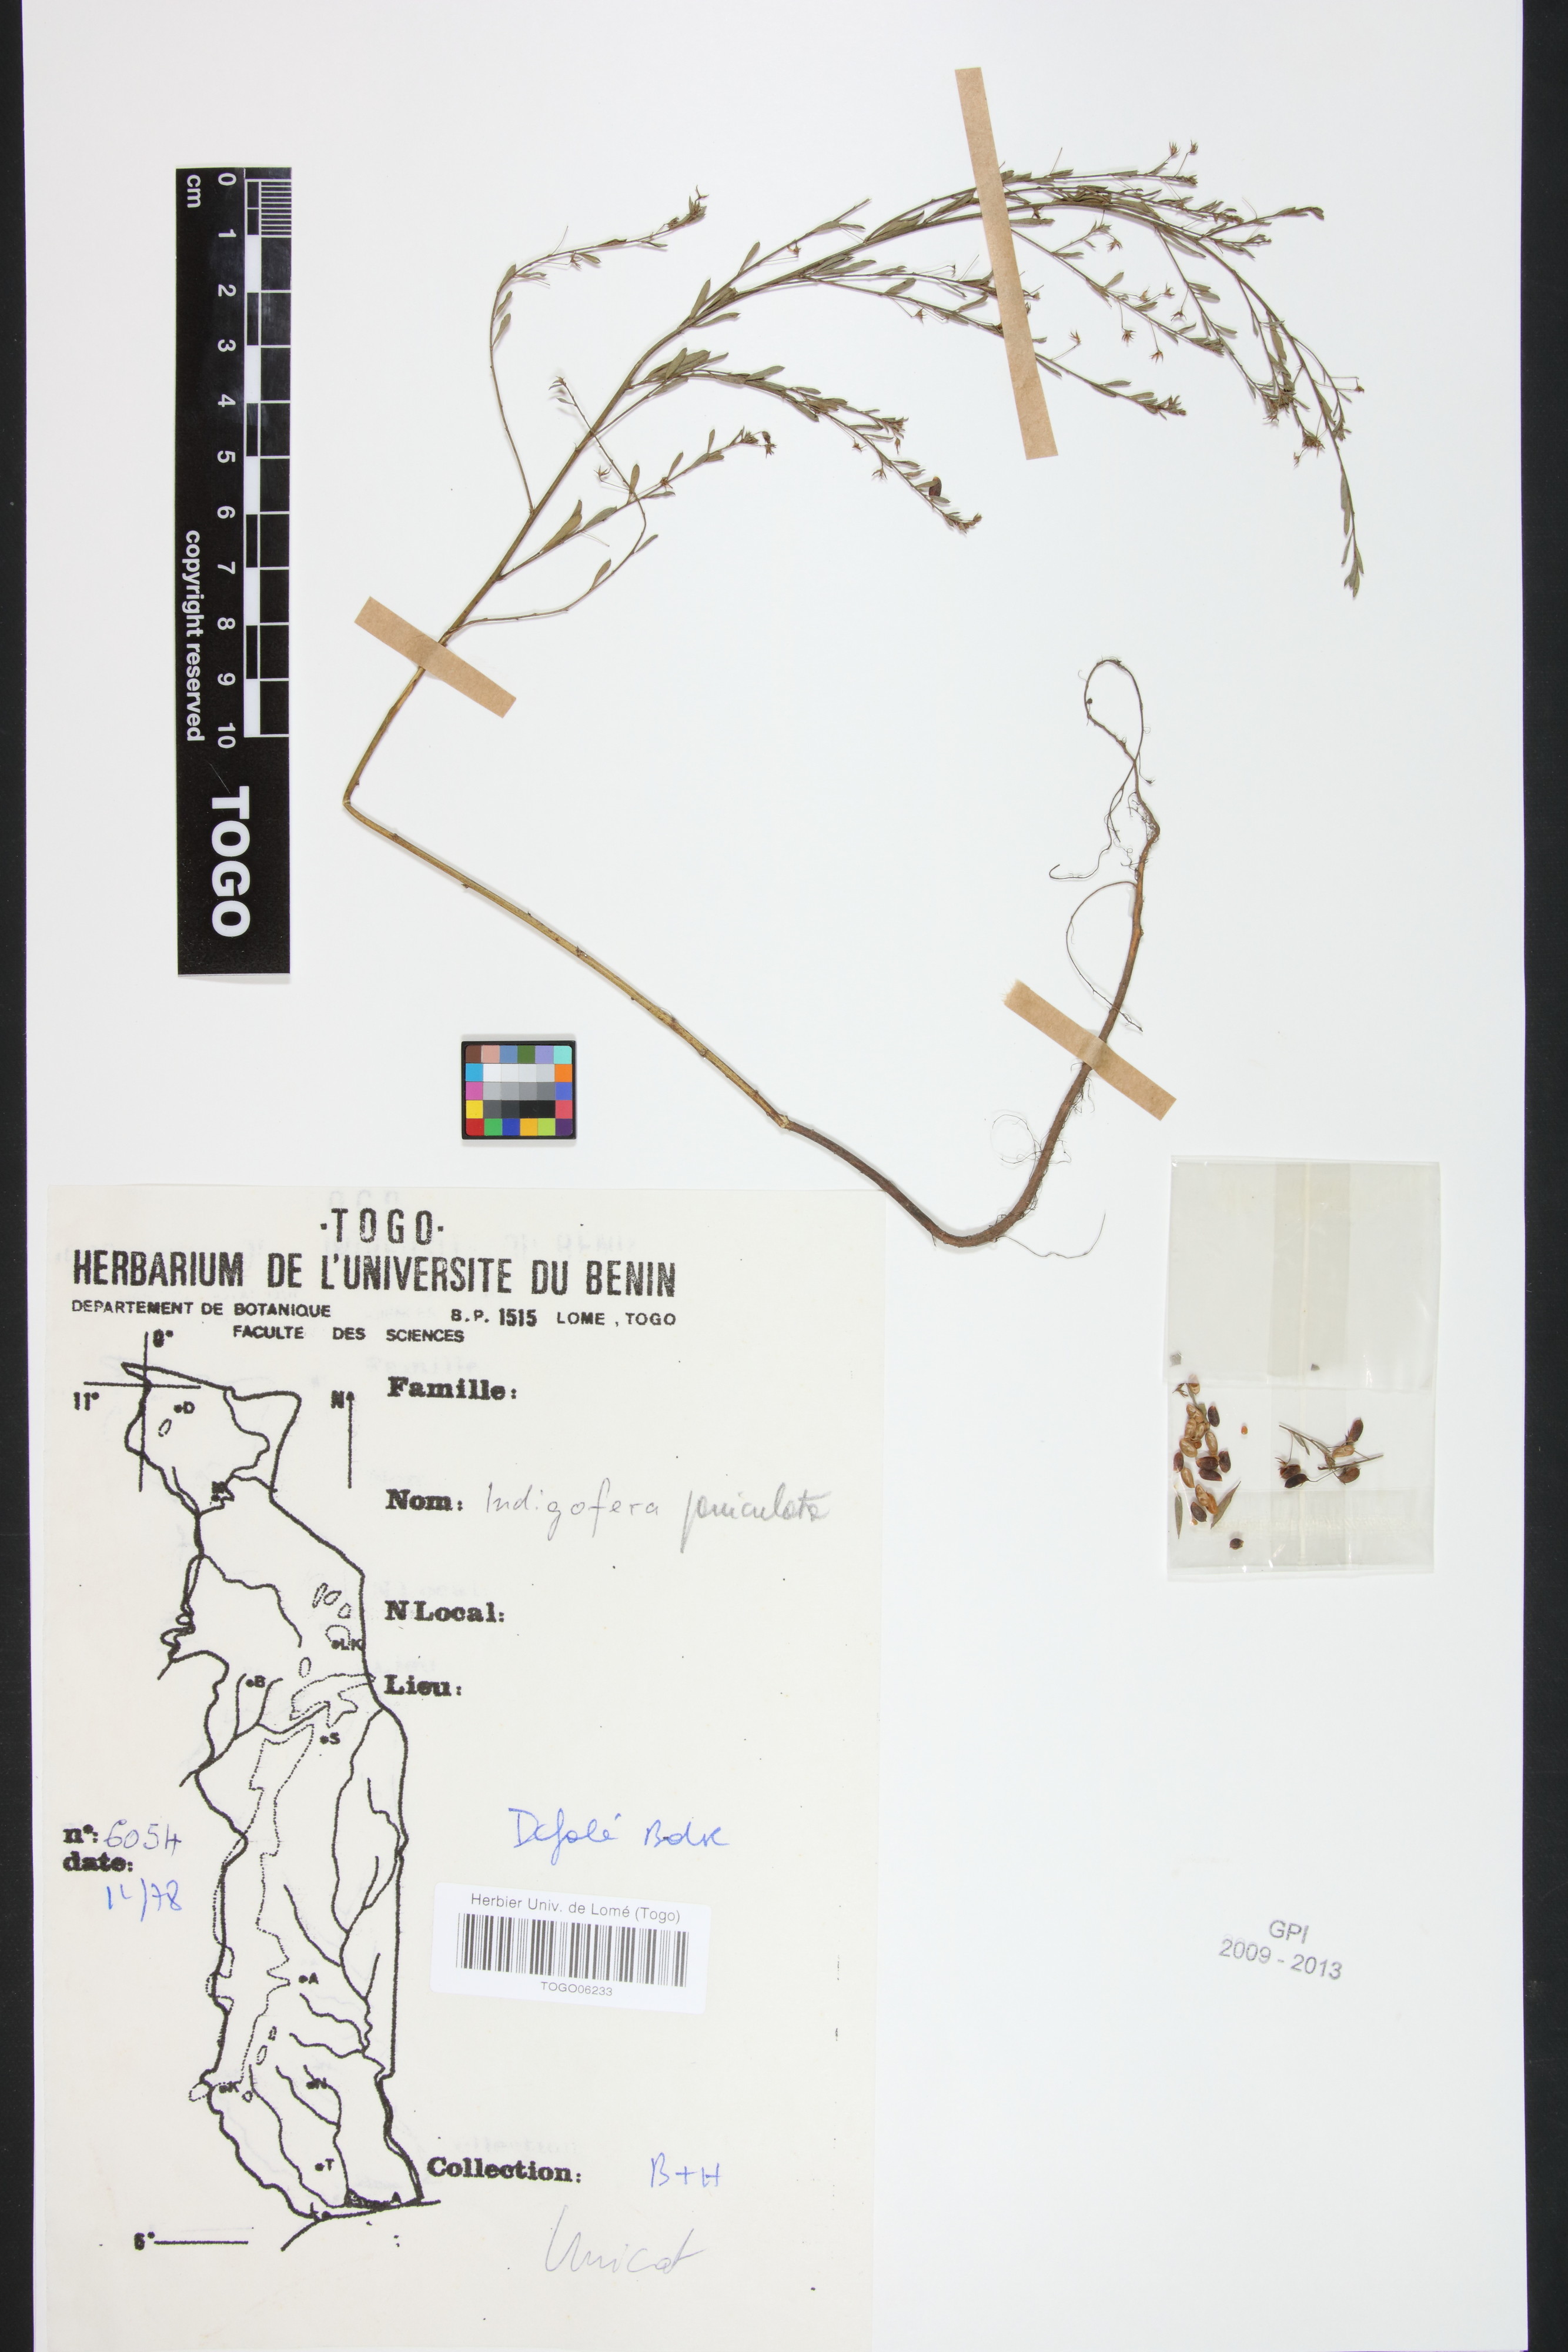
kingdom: Plantae
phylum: Tracheophyta
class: Magnoliopsida
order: Fabales
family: Fabaceae
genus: Indigofera
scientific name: Indigofera paniculata
